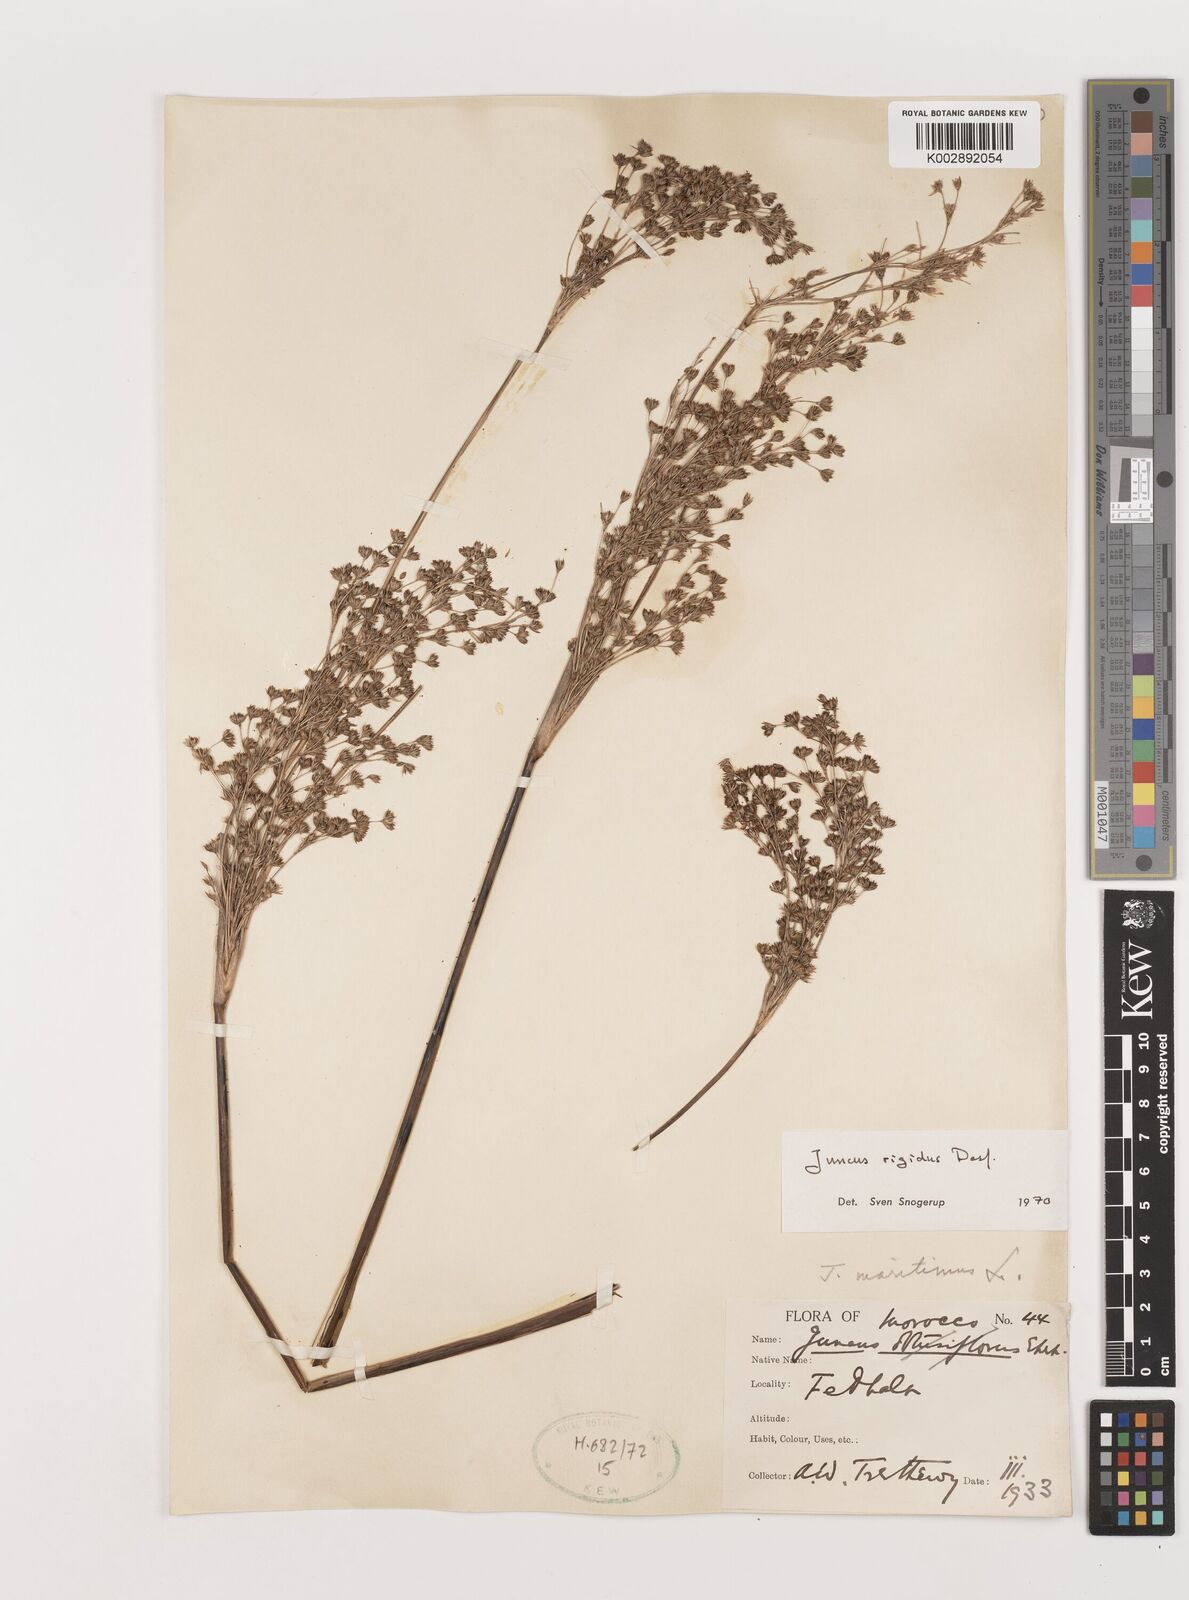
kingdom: Plantae
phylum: Tracheophyta
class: Liliopsida
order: Poales
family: Juncaceae
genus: Juncus
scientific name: Juncus rigidus
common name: Hard sea rush
